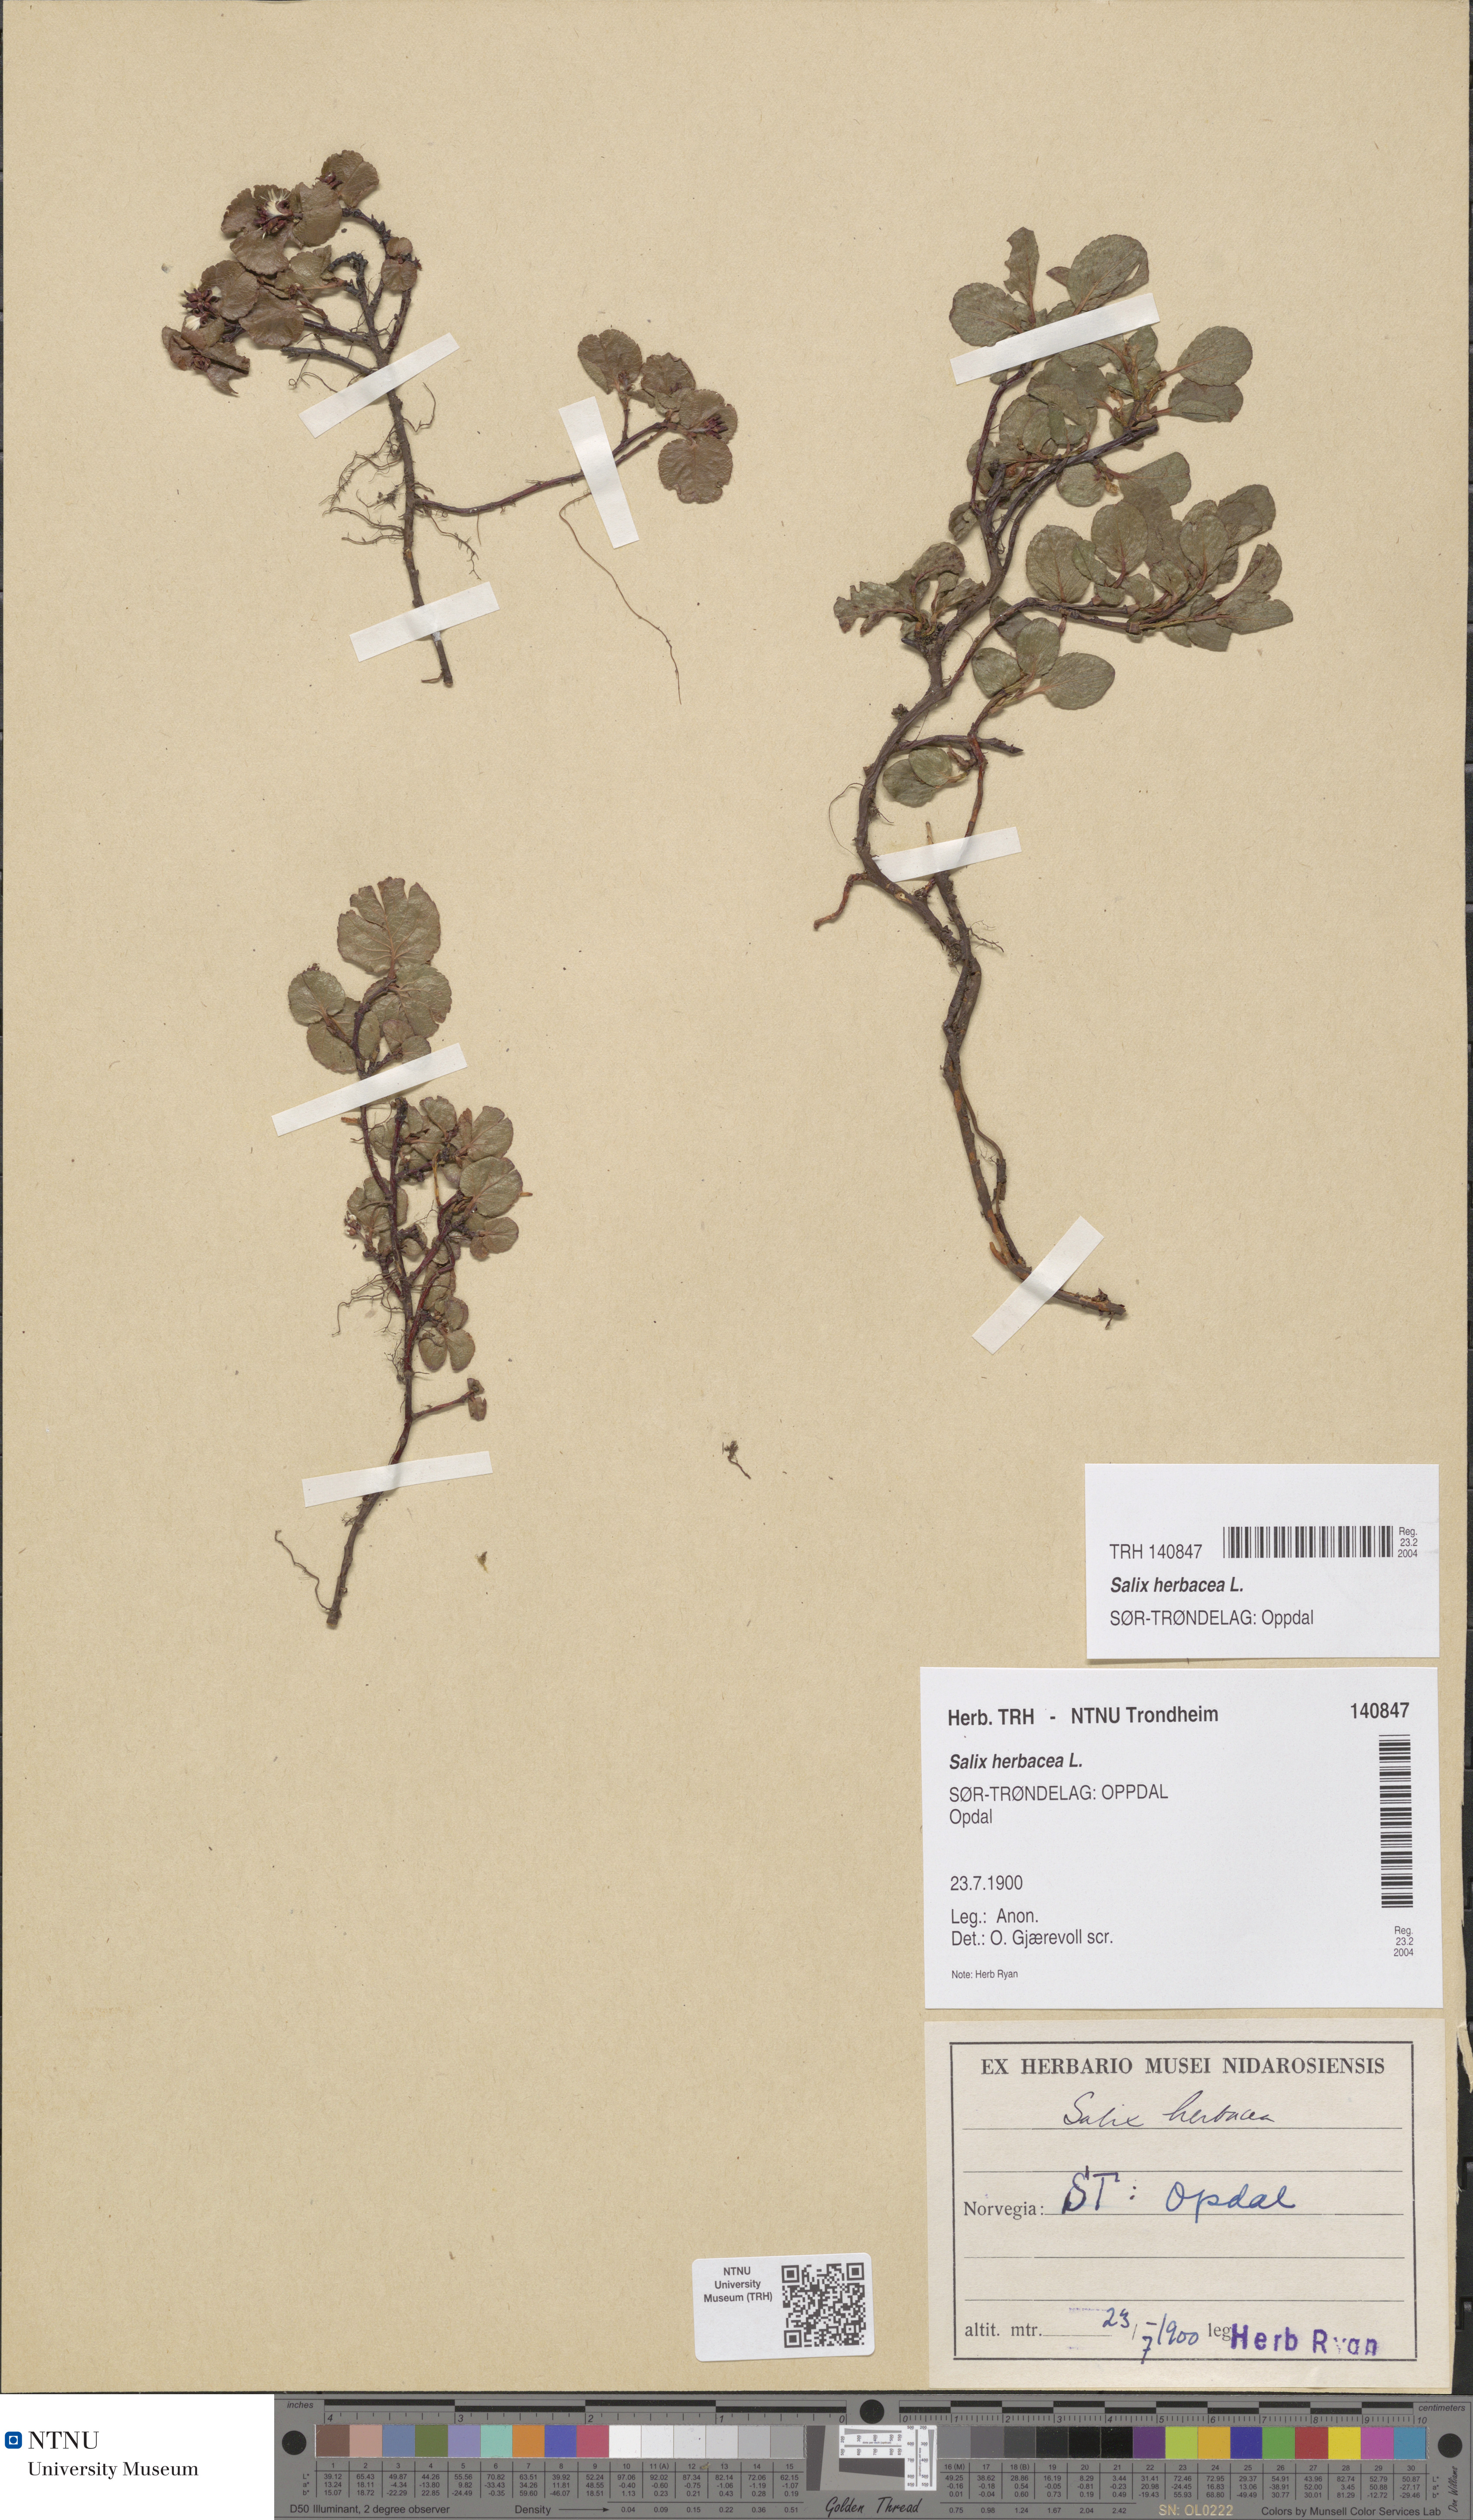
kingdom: Plantae
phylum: Tracheophyta
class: Magnoliopsida
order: Malpighiales
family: Salicaceae
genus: Salix
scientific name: Salix herbacea
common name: Dwarf willow
